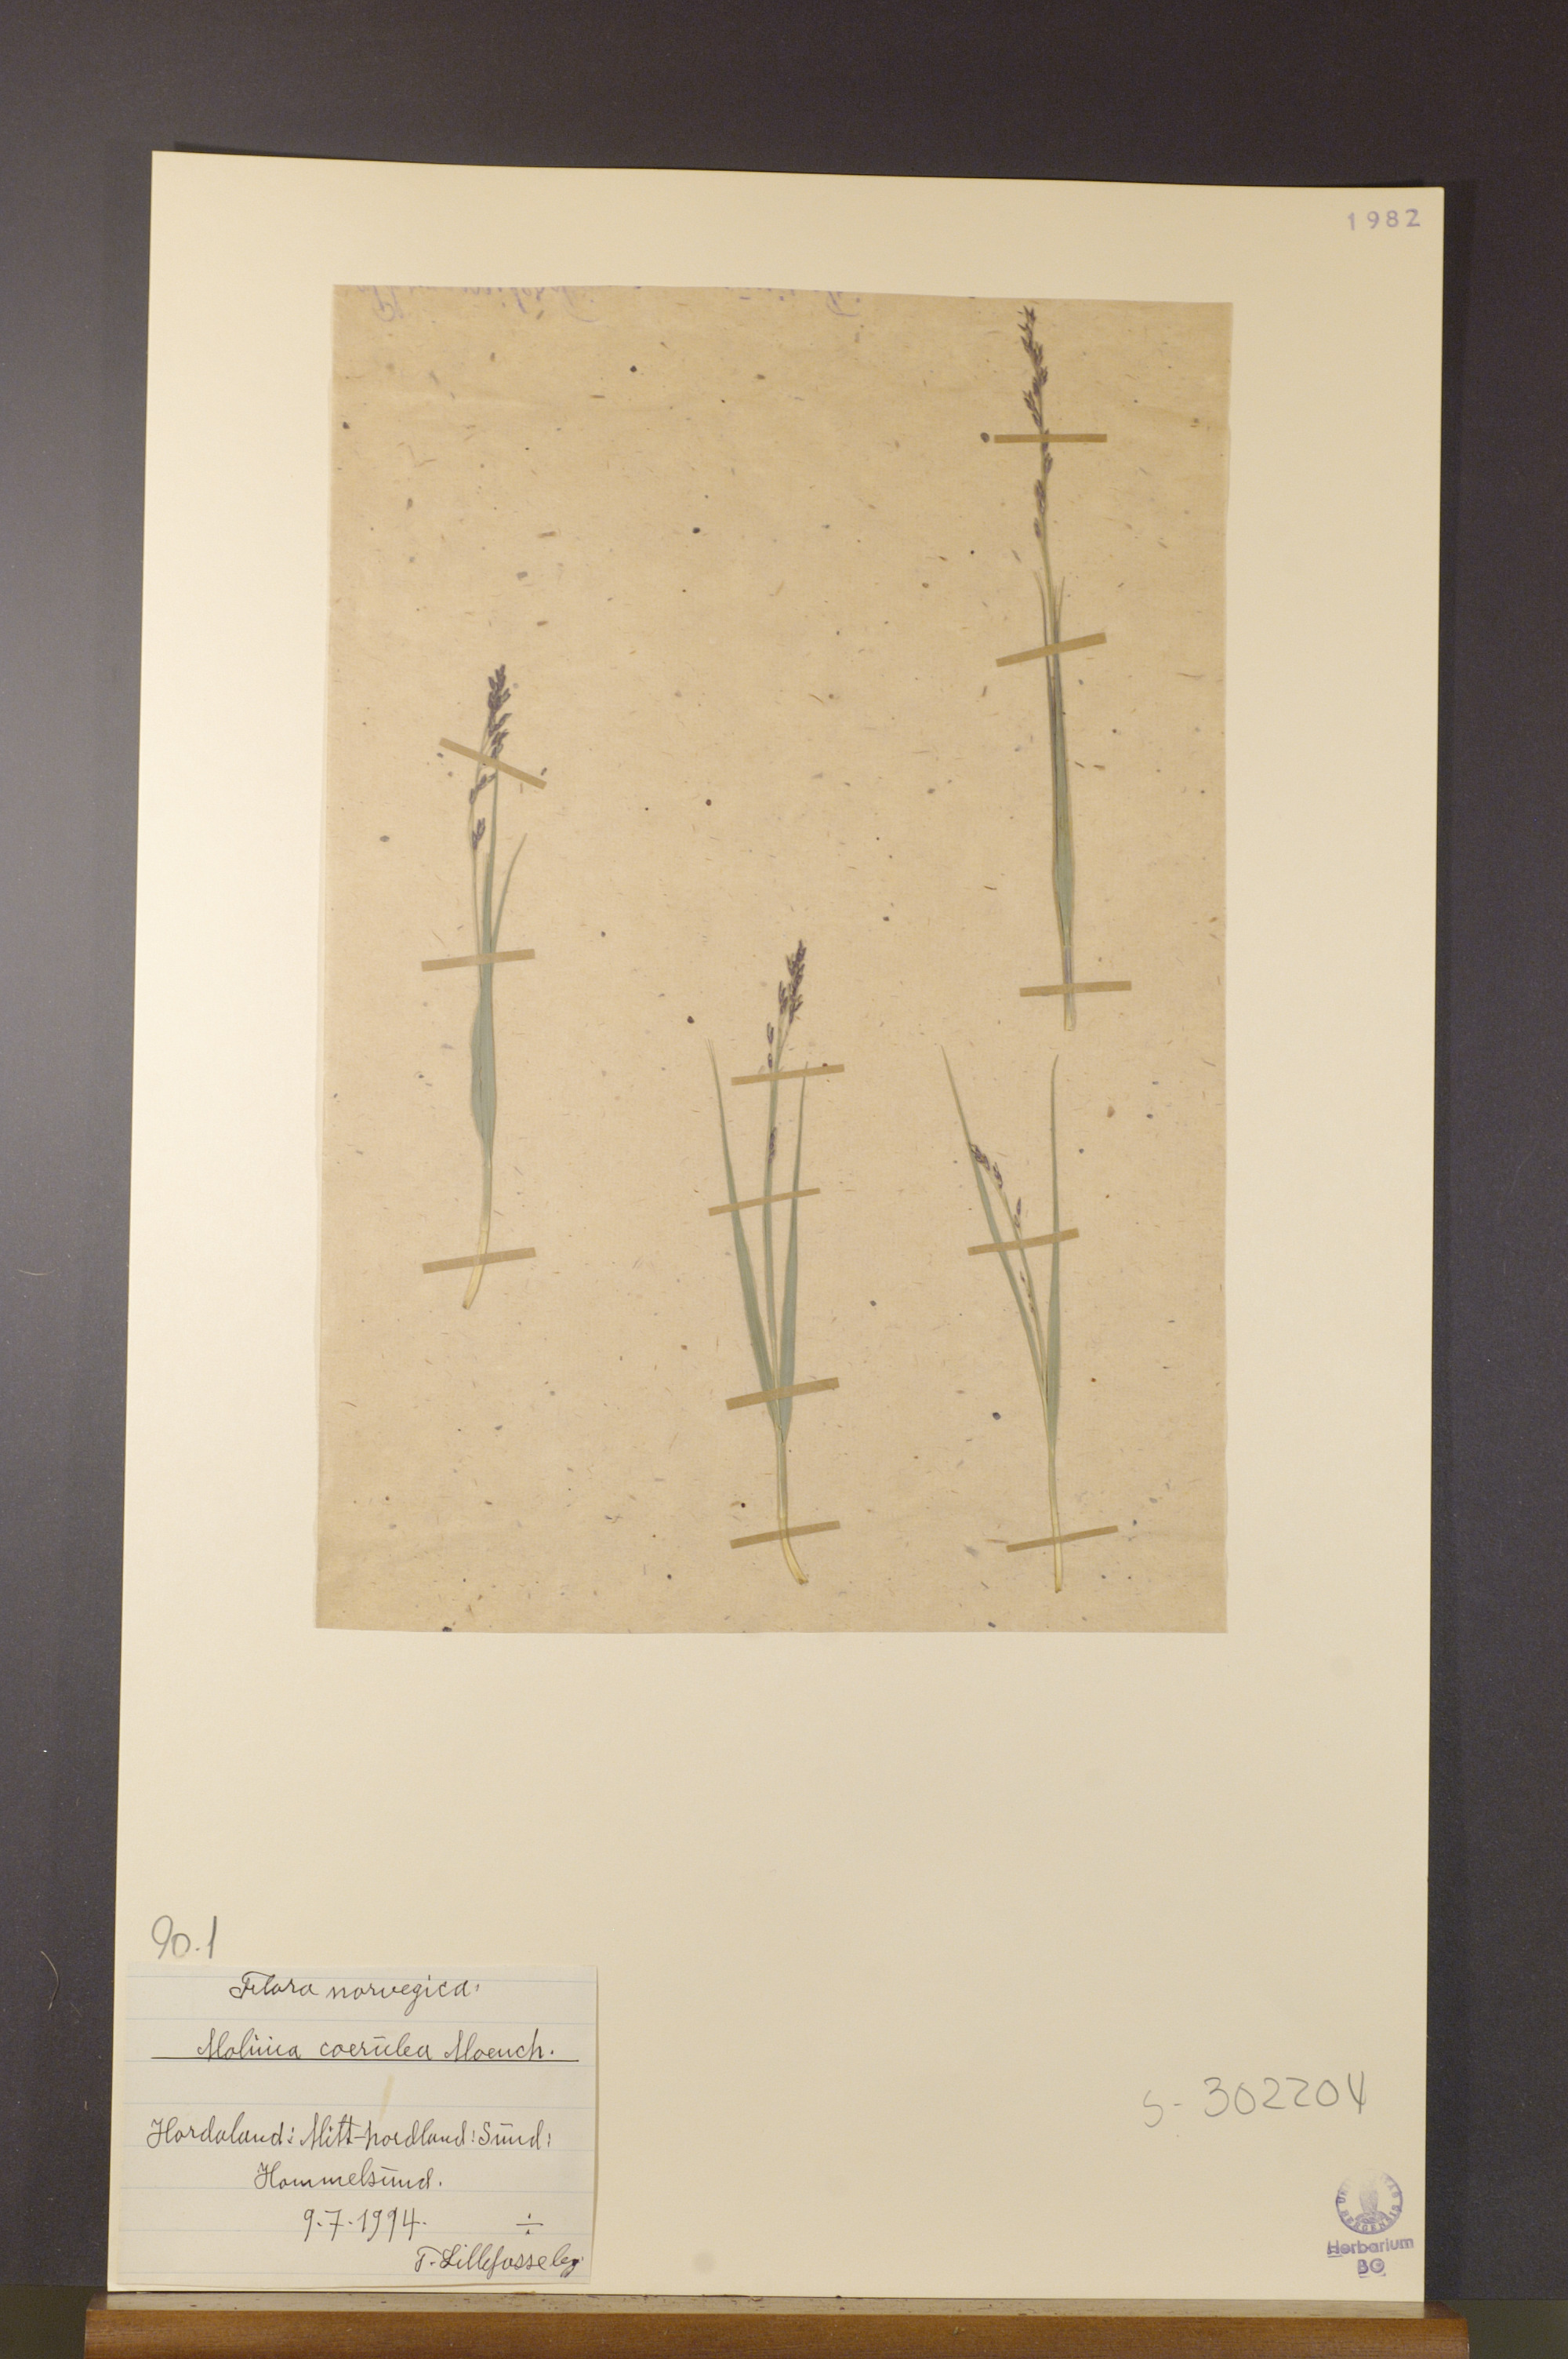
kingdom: Plantae
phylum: Tracheophyta
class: Liliopsida
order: Poales
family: Poaceae
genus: Molinia
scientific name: Molinia caerulea
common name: Purple moor-grass
